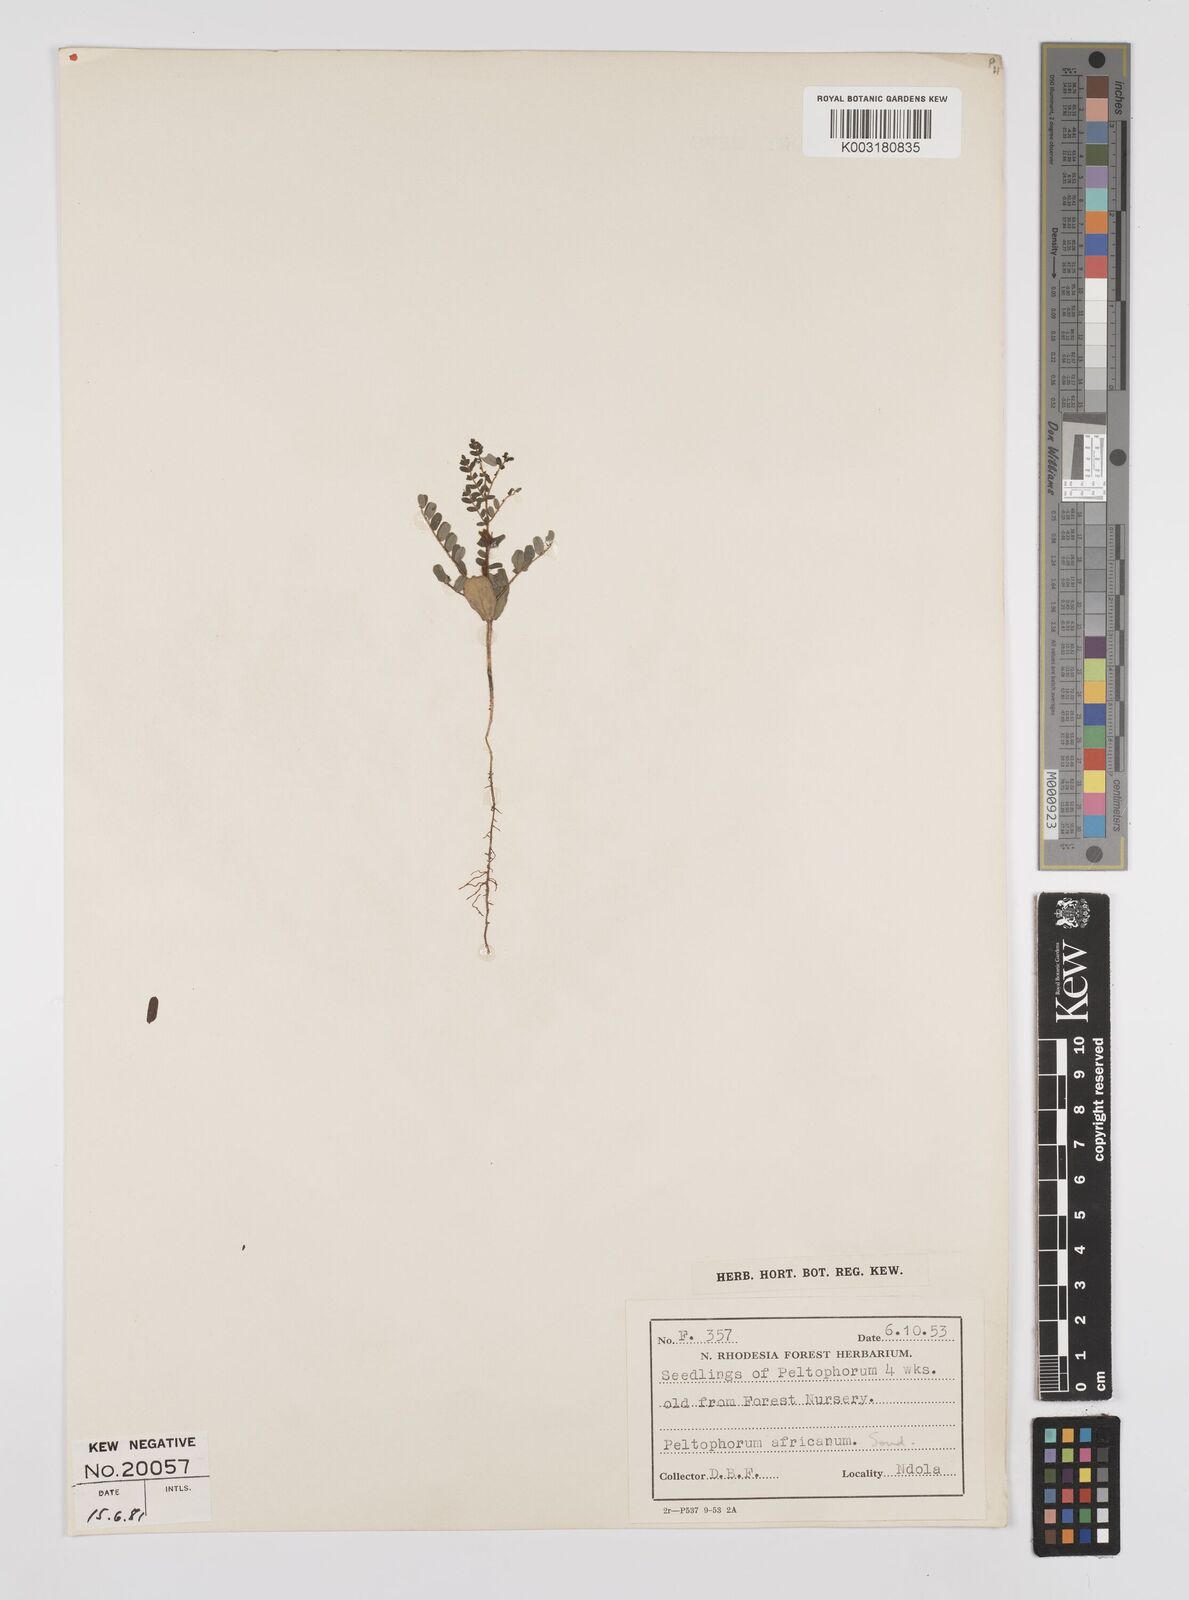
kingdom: Plantae
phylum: Tracheophyta
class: Magnoliopsida
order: Fabales
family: Fabaceae
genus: Peltophorum
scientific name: Peltophorum africanum
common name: African black wattle
